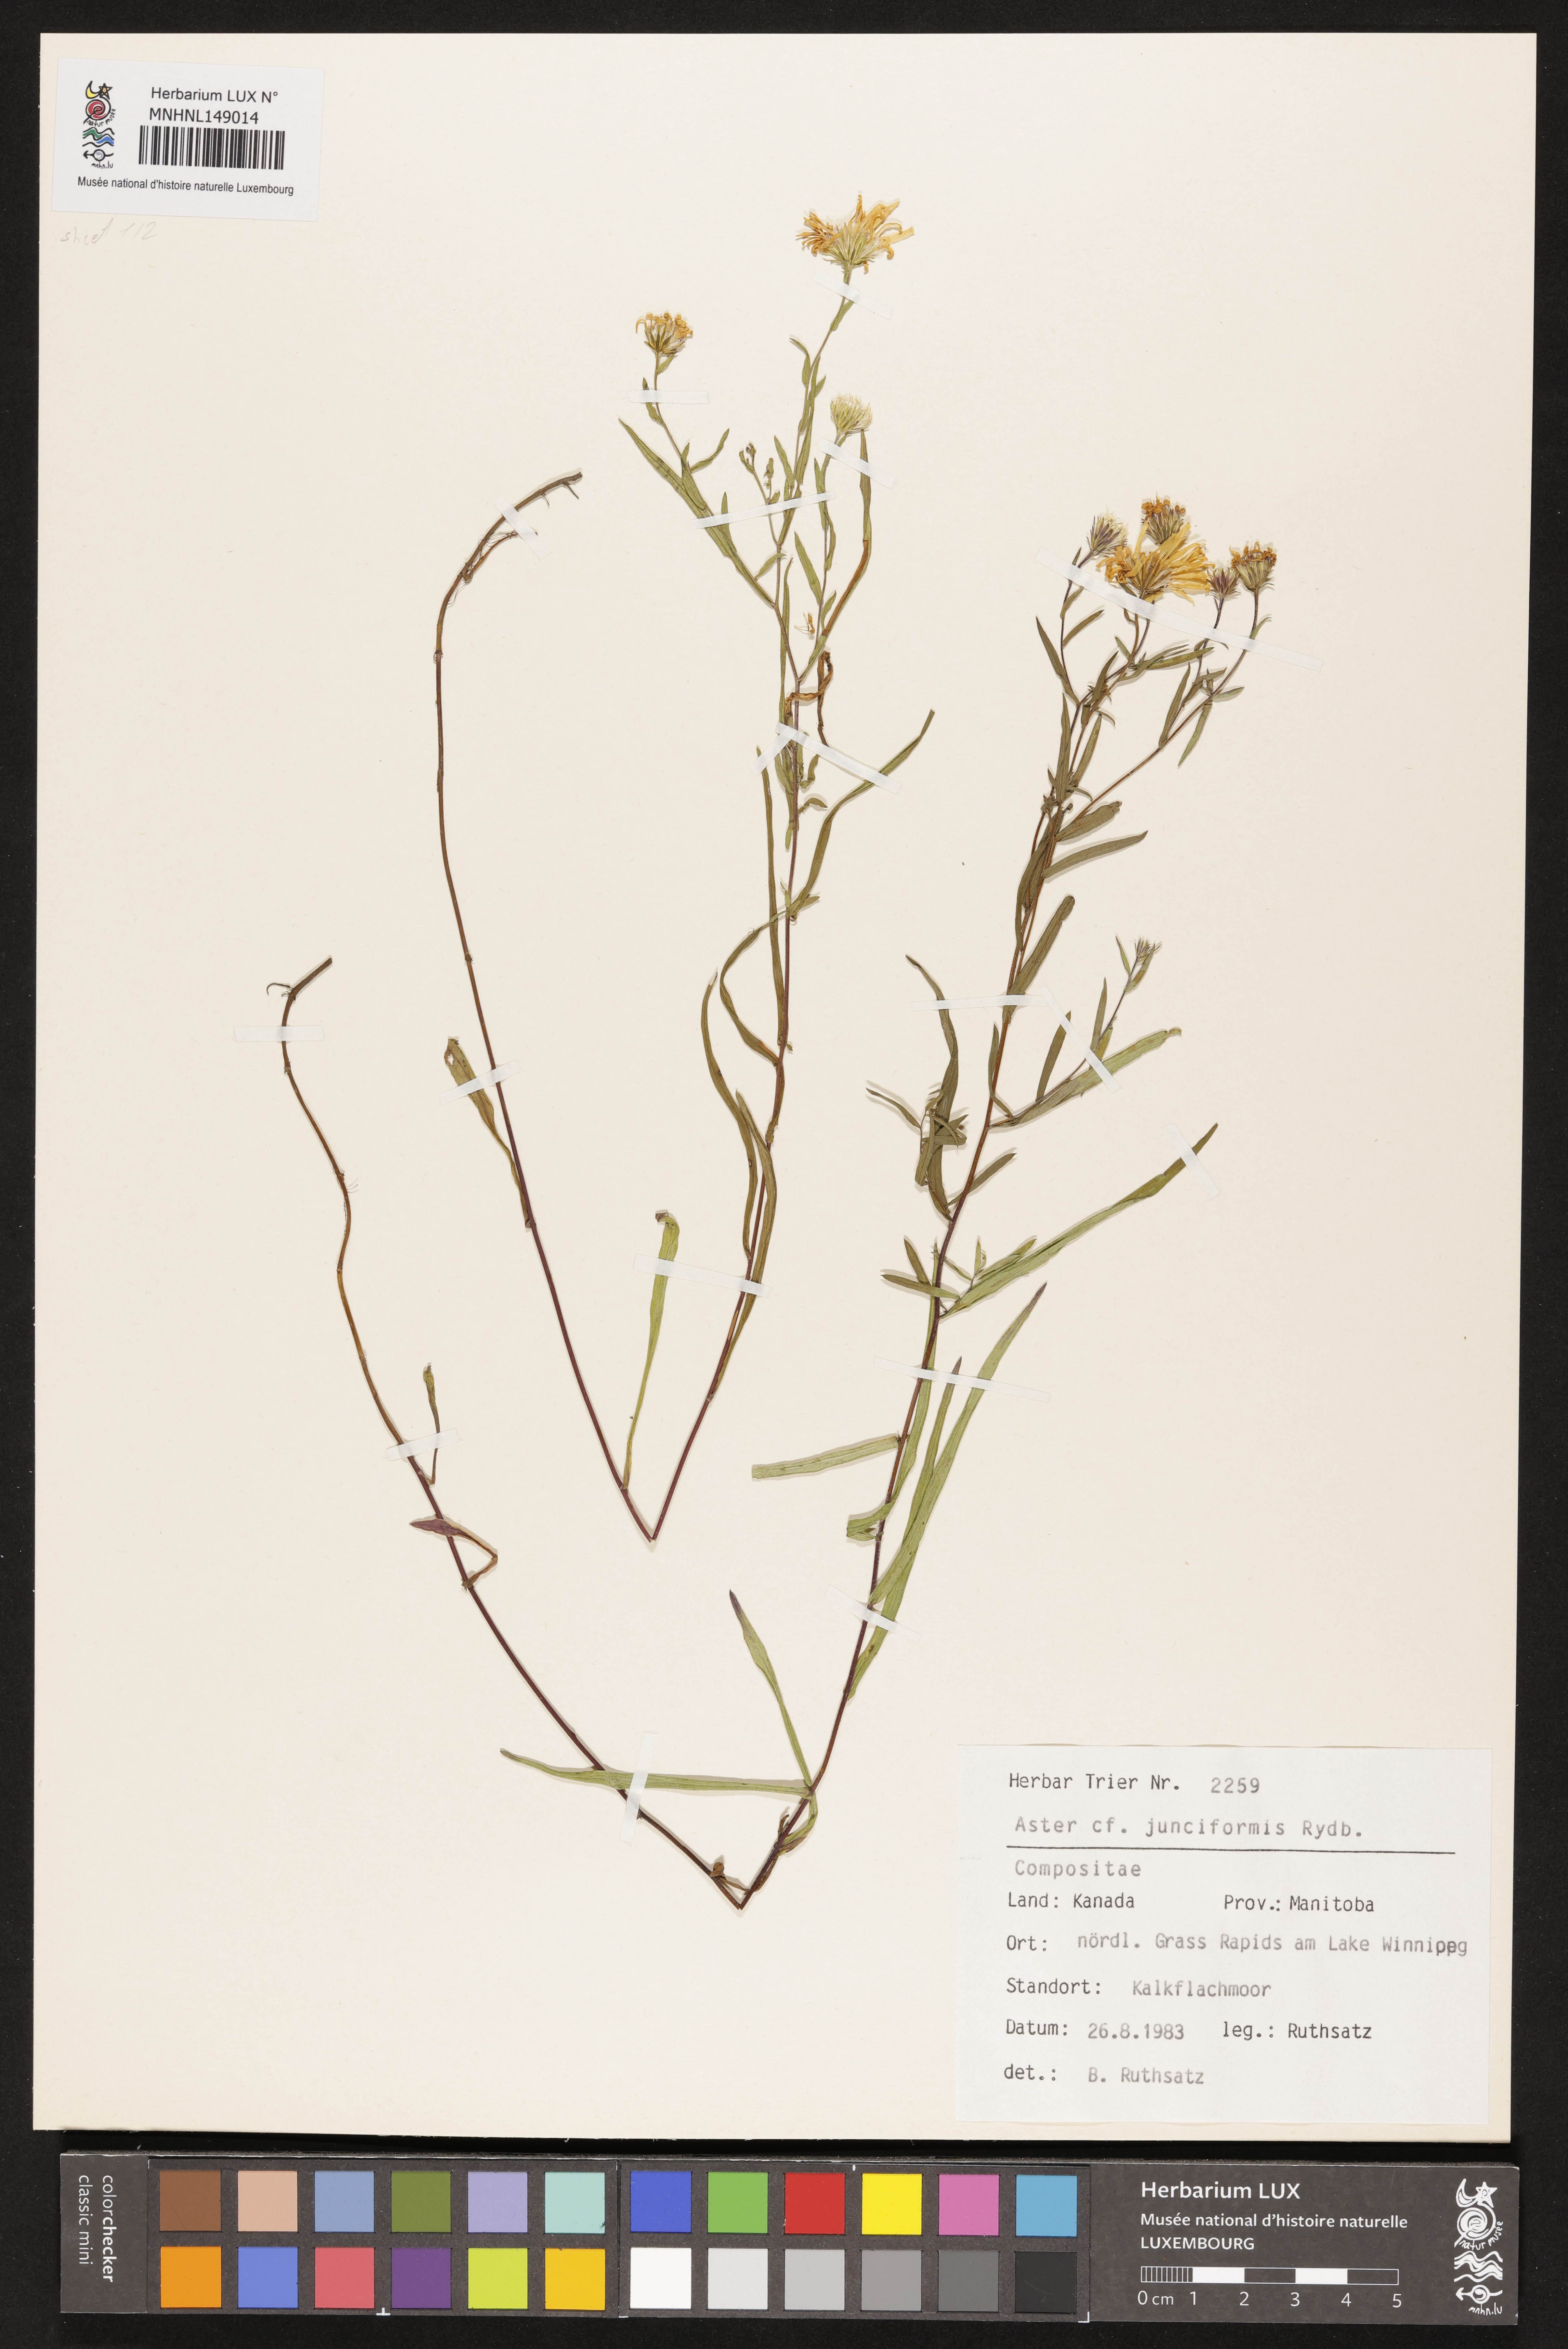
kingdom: Plantae
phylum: Tracheophyta
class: Magnoliopsida
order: Asterales
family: Asteraceae
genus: Symphyotrichum
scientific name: Symphyotrichum boreale
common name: Northern bog aster
